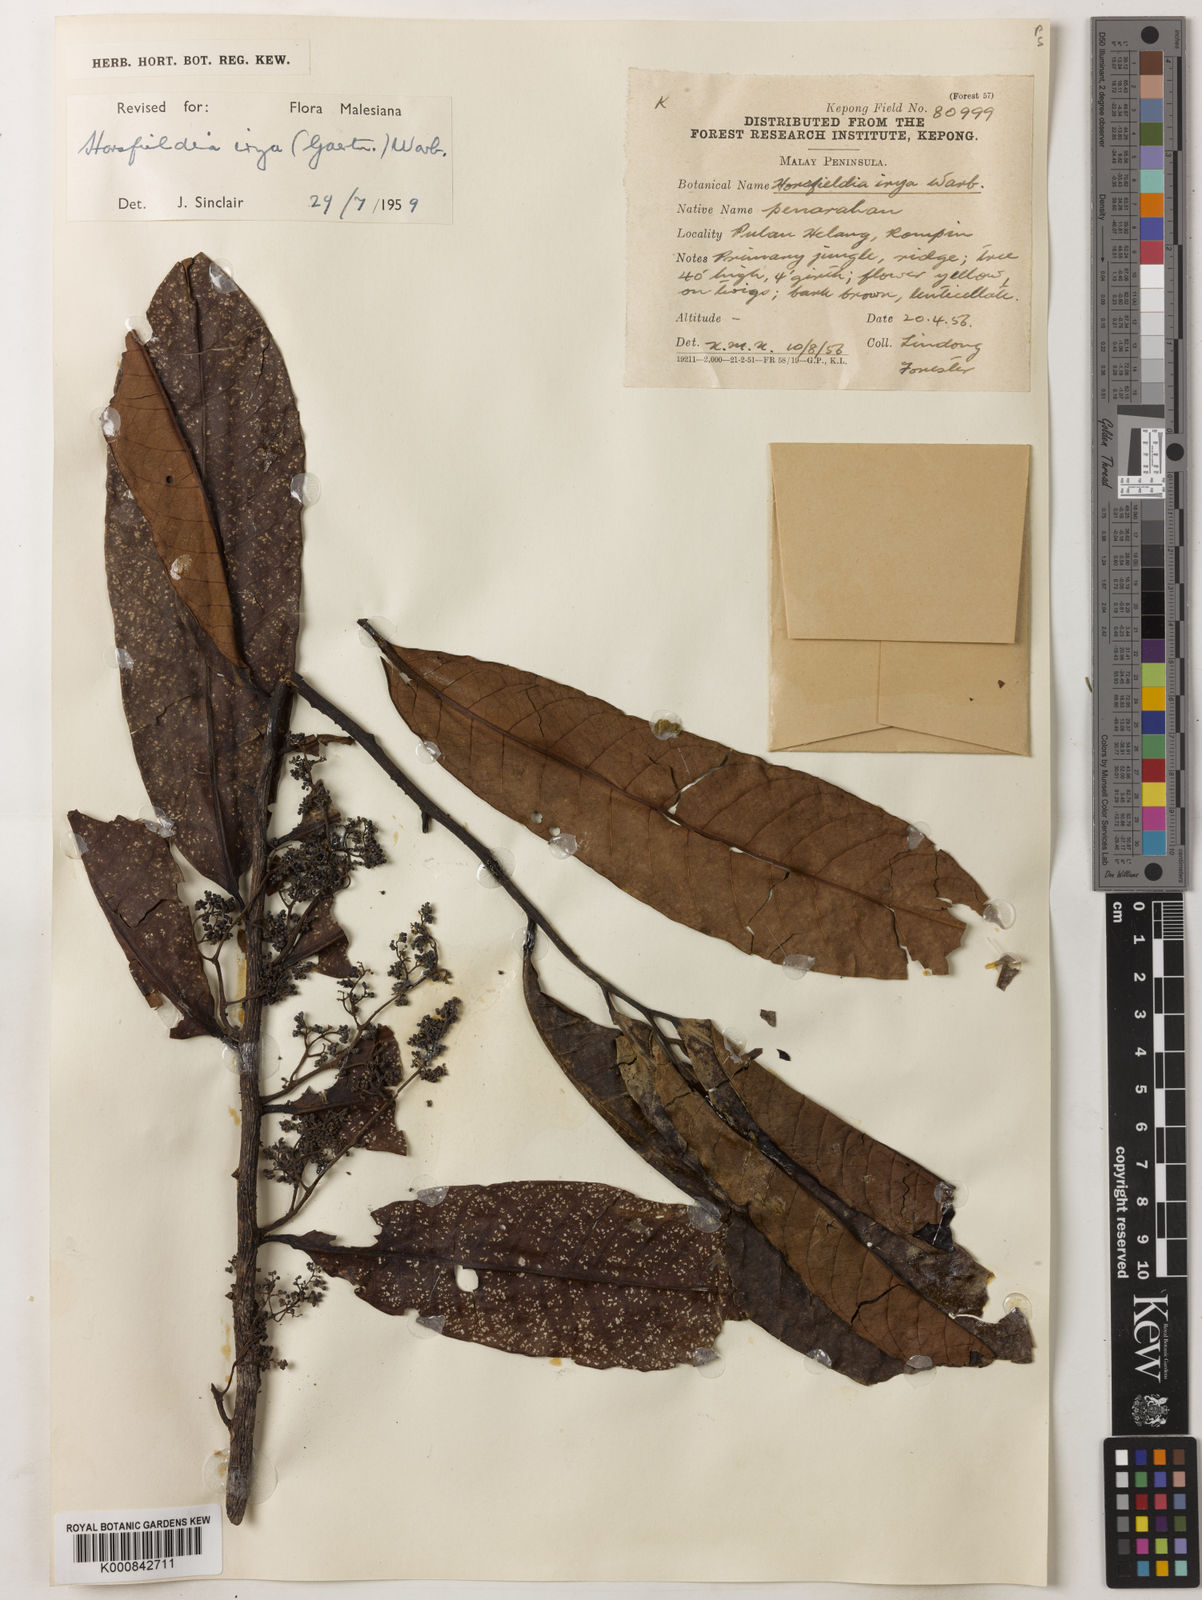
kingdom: Plantae
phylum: Tracheophyta
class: Magnoliopsida
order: Magnoliales
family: Myristicaceae
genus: Horsfieldia
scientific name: Horsfieldia irya
